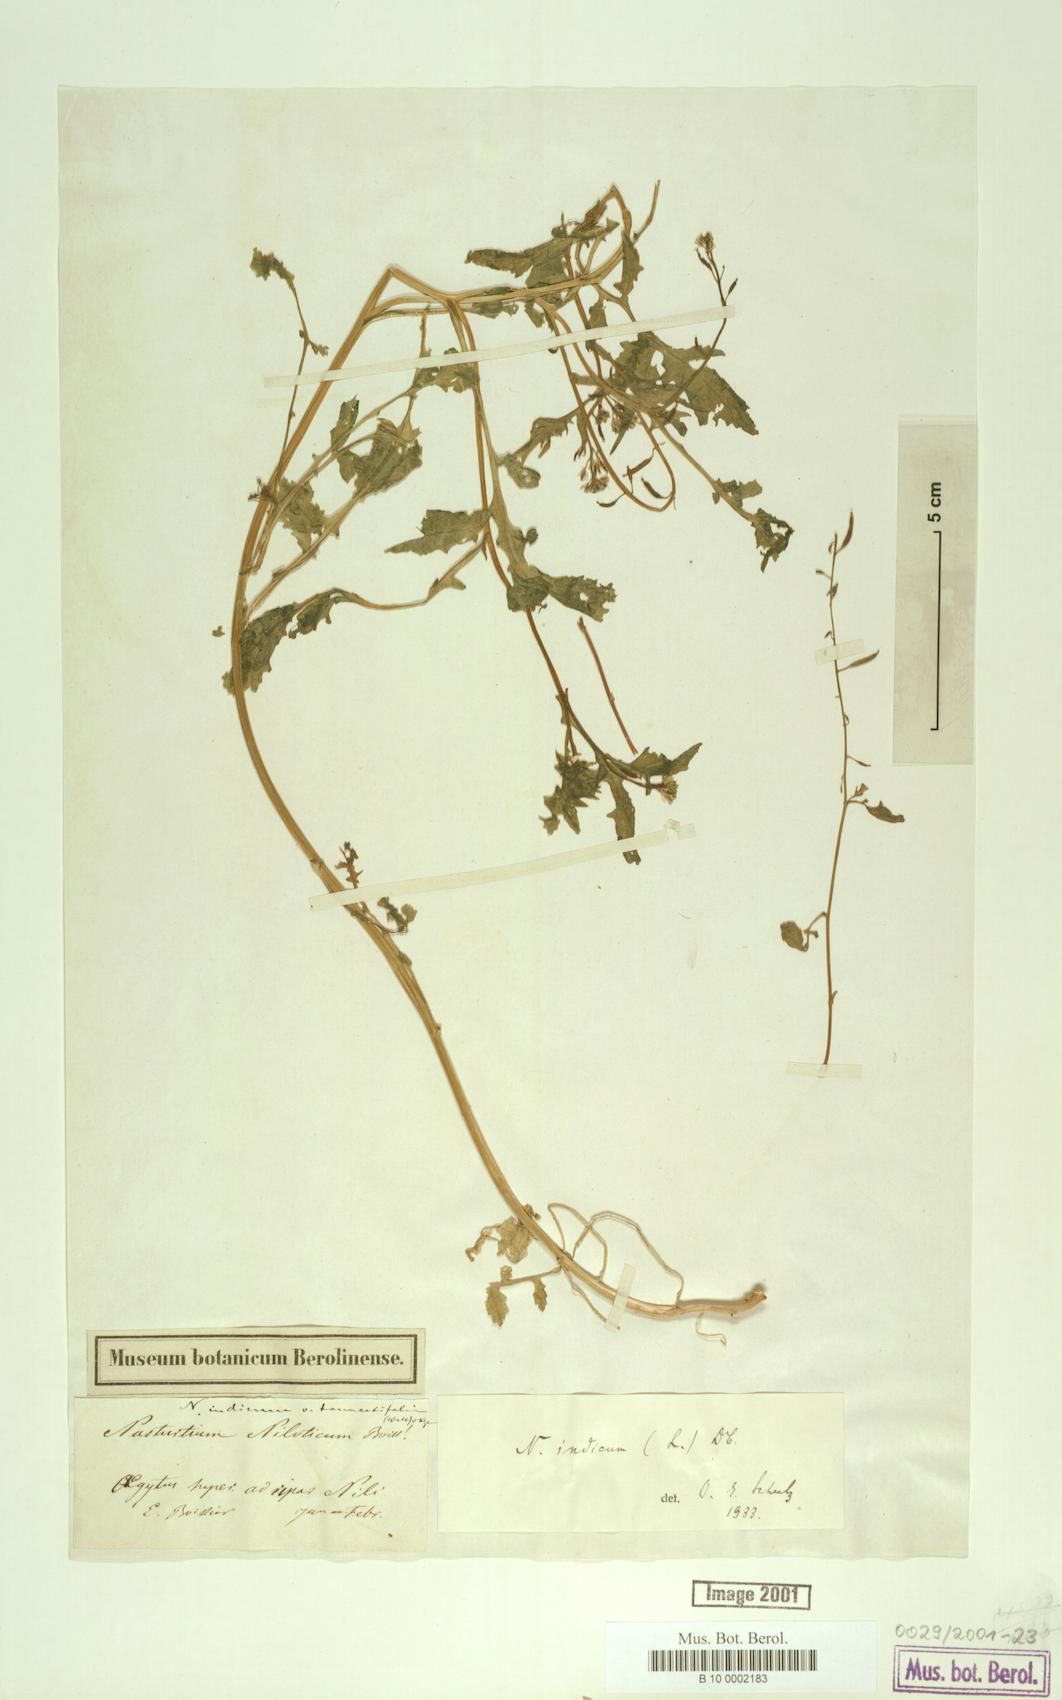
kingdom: Plantae
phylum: Tracheophyta
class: Magnoliopsida
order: Brassicales
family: Brassicaceae
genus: Rorippa
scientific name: Rorippa indica
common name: Variableleaf yellowcress
